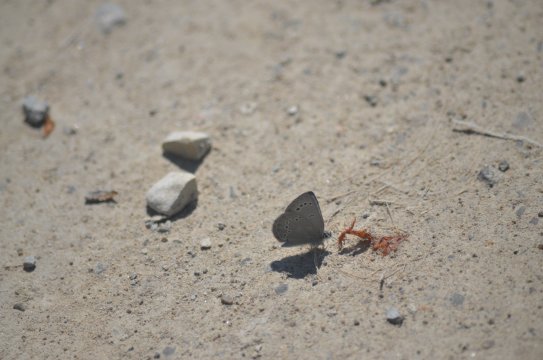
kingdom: Animalia
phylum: Arthropoda
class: Insecta
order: Lepidoptera
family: Lycaenidae
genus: Glaucopsyche
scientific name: Glaucopsyche lygdamus
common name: Silvery Blue
